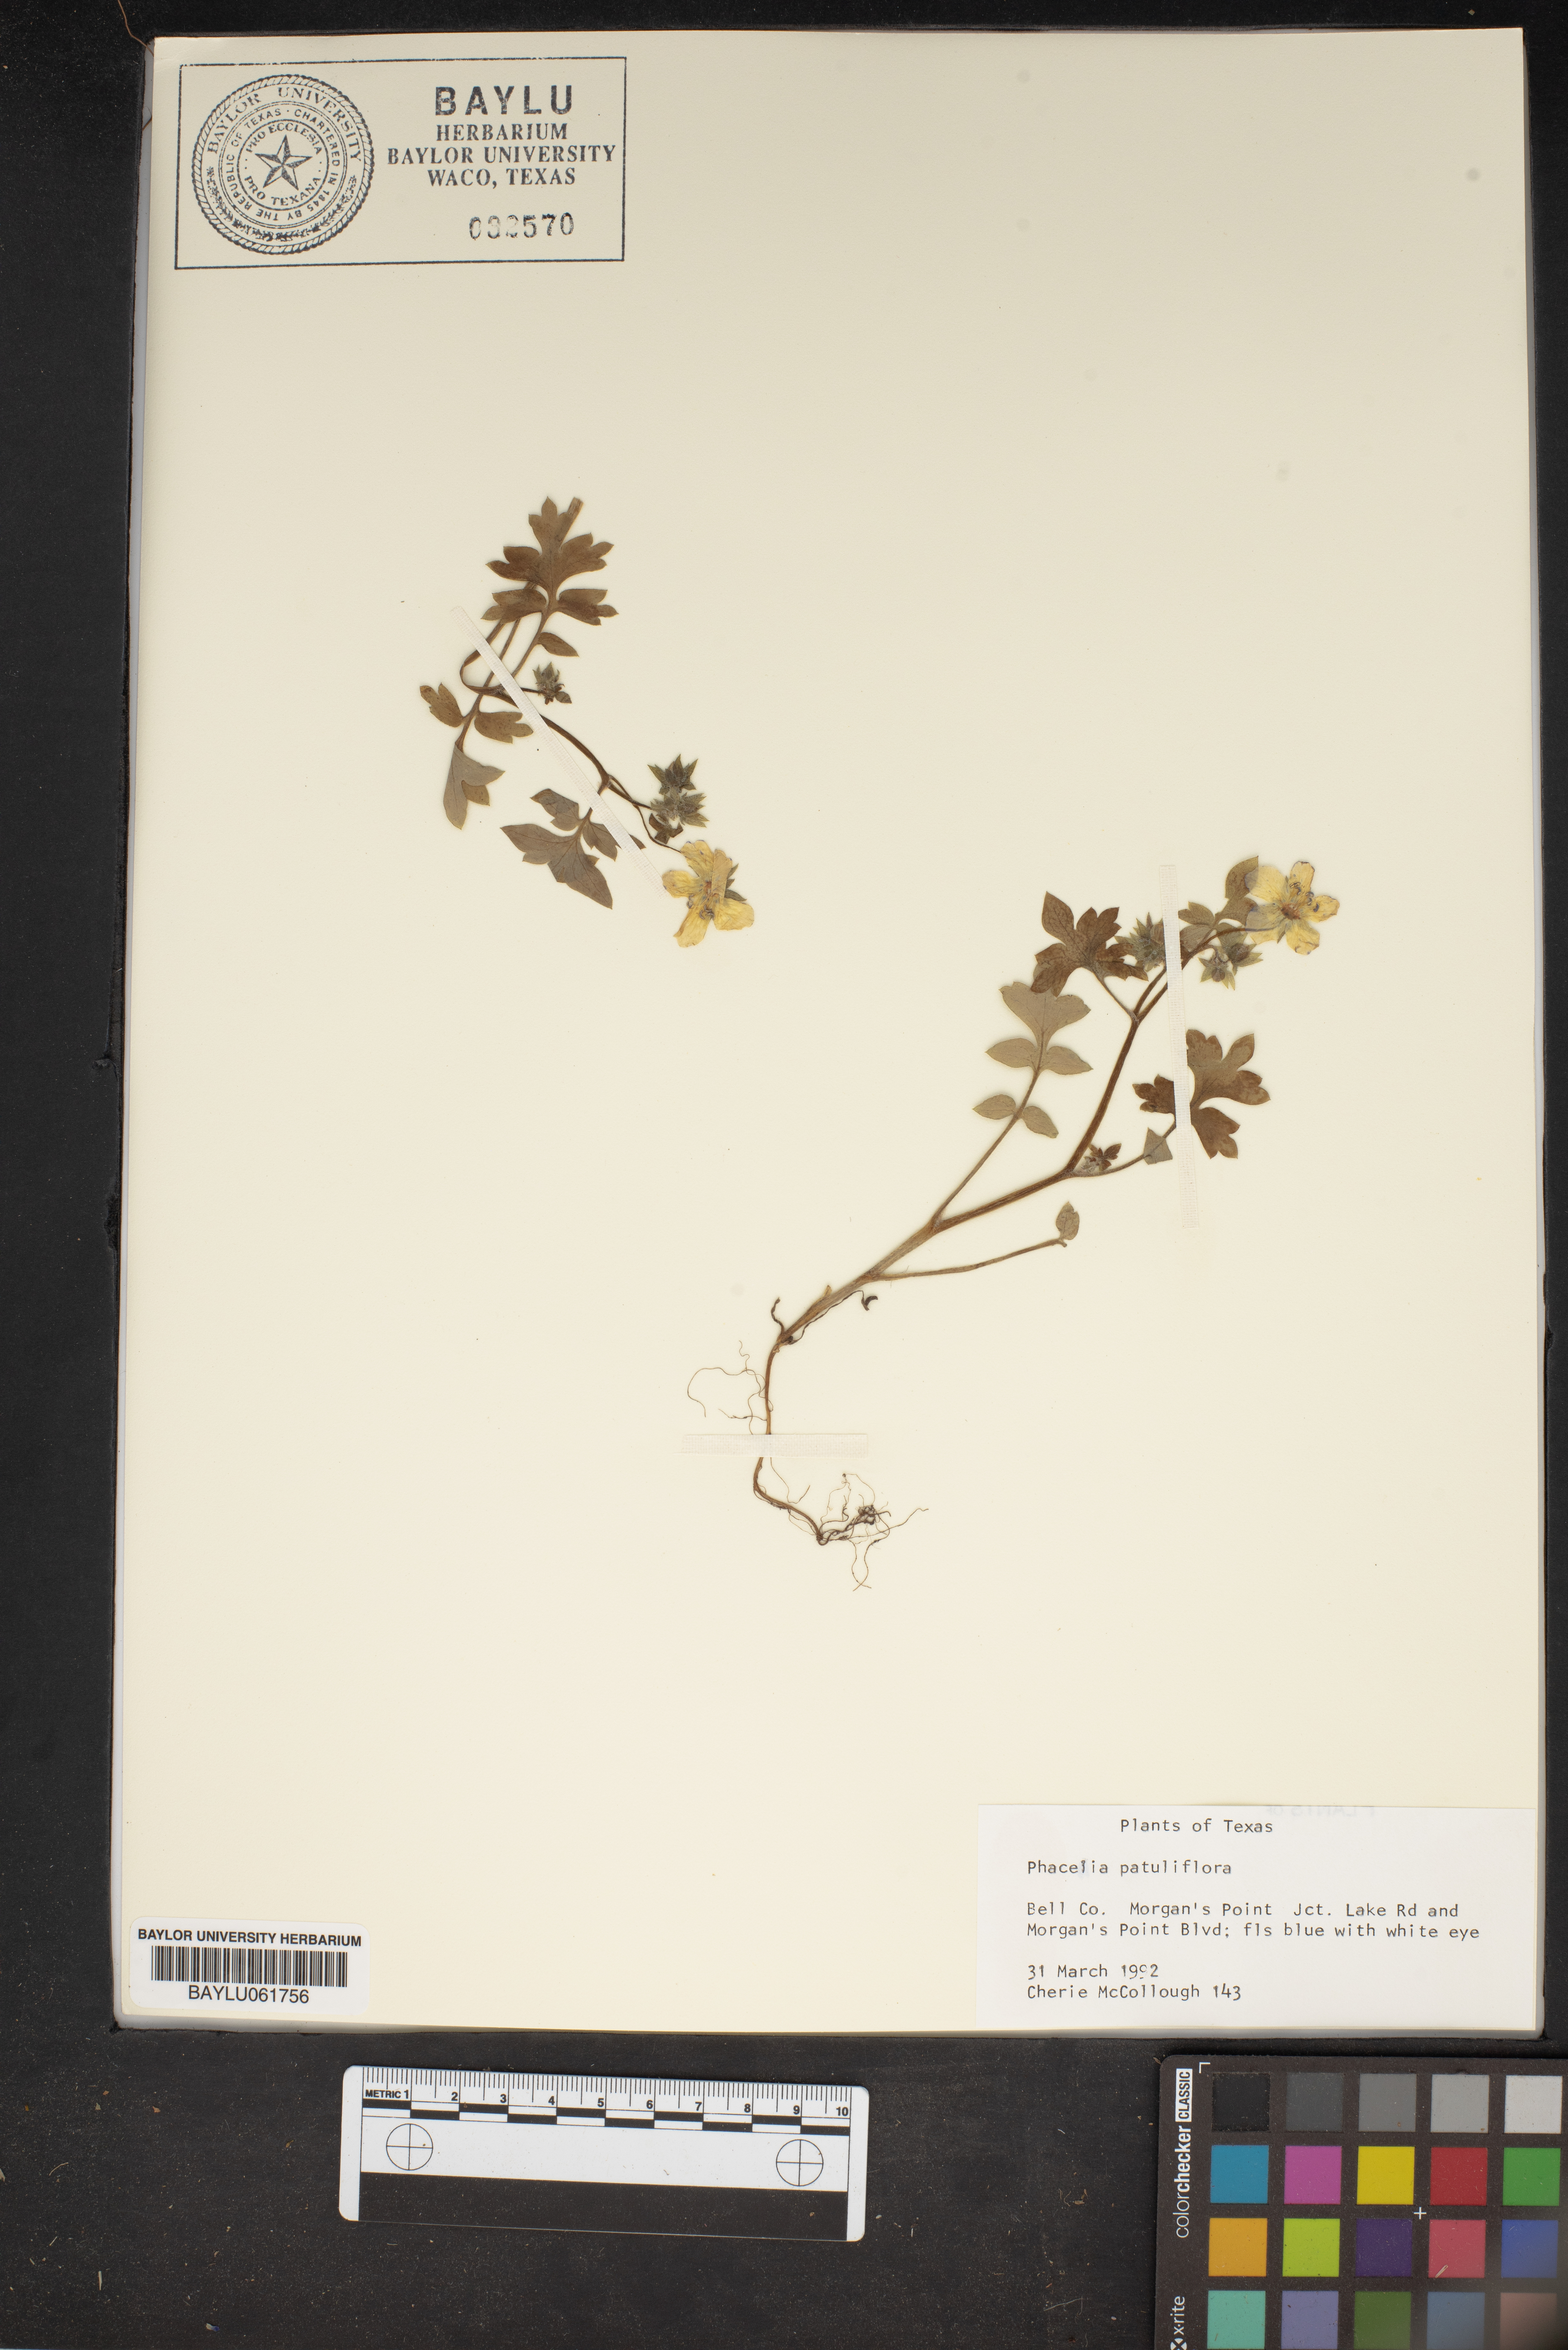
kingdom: Plantae
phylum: Tracheophyta
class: Magnoliopsida
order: Boraginales
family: Hydrophyllaceae
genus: Phacelia
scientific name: Phacelia patuliflora
